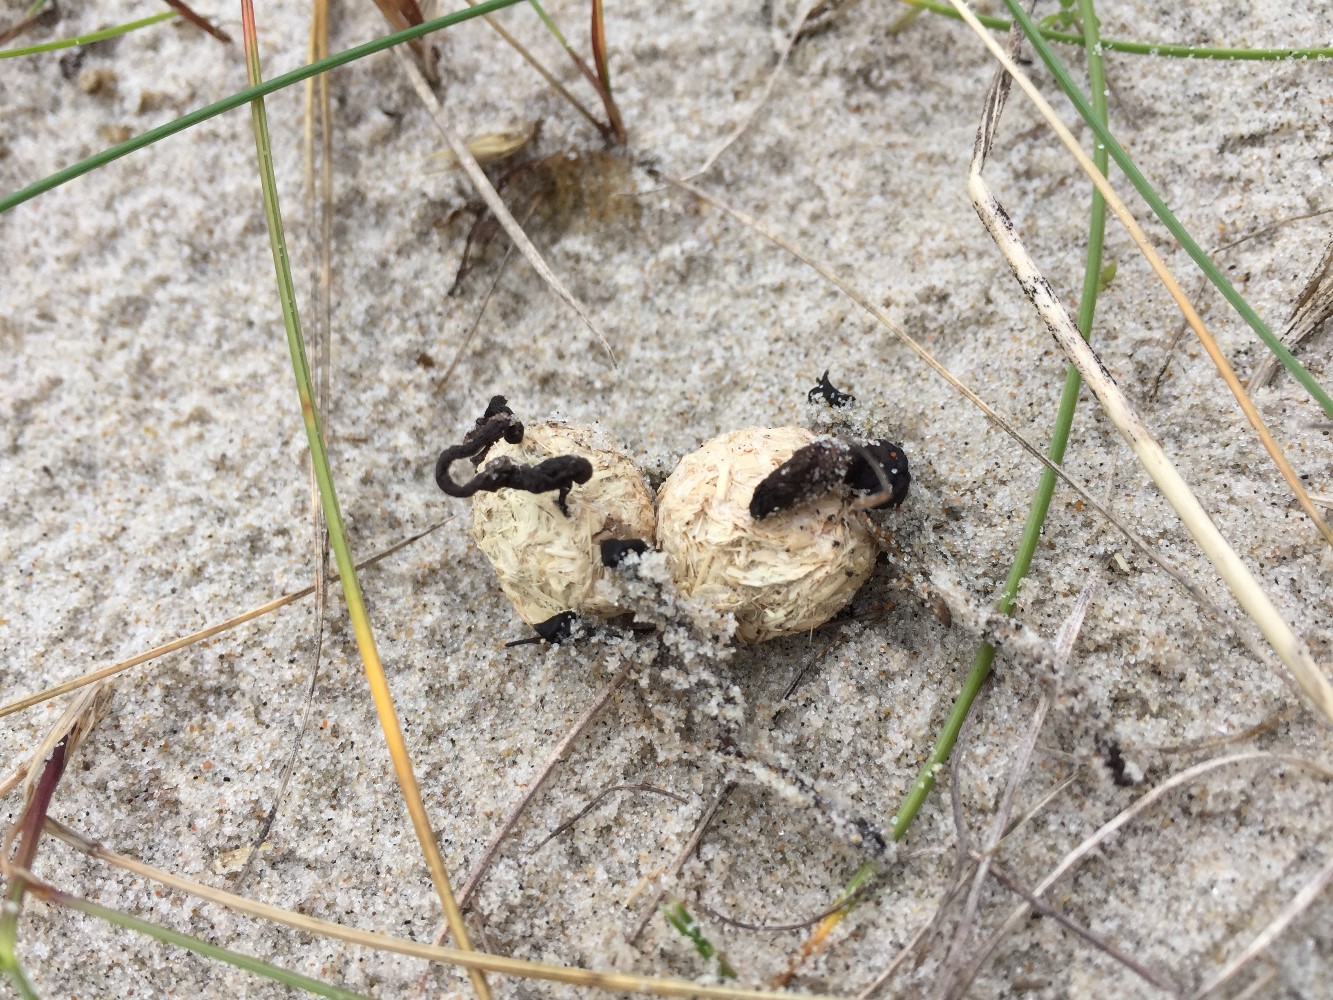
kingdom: Fungi
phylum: Ascomycota
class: Sordariomycetes
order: Xylariales
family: Xylariaceae
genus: Podosordaria
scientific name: Podosordaria tulasnei
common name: gødnings-stødsvamp
